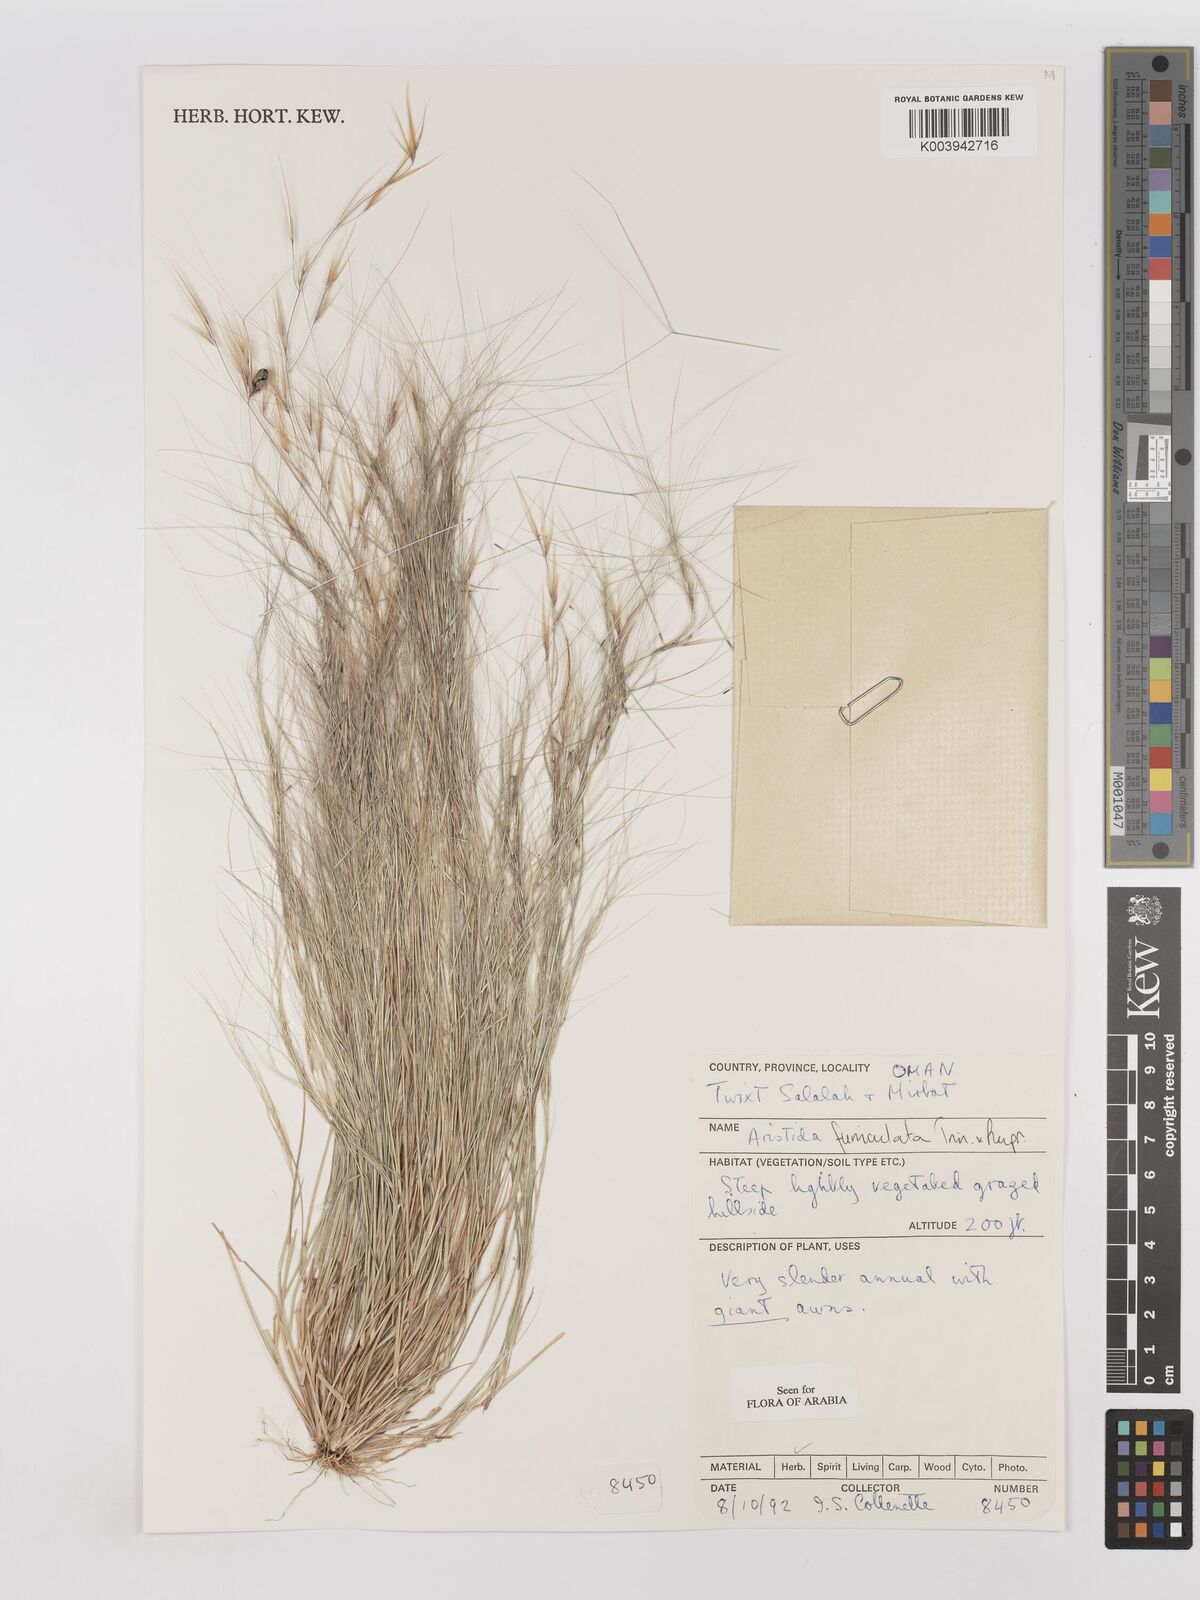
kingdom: Plantae
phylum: Tracheophyta
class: Liliopsida
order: Poales
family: Poaceae
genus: Aristida
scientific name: Aristida funiculata
